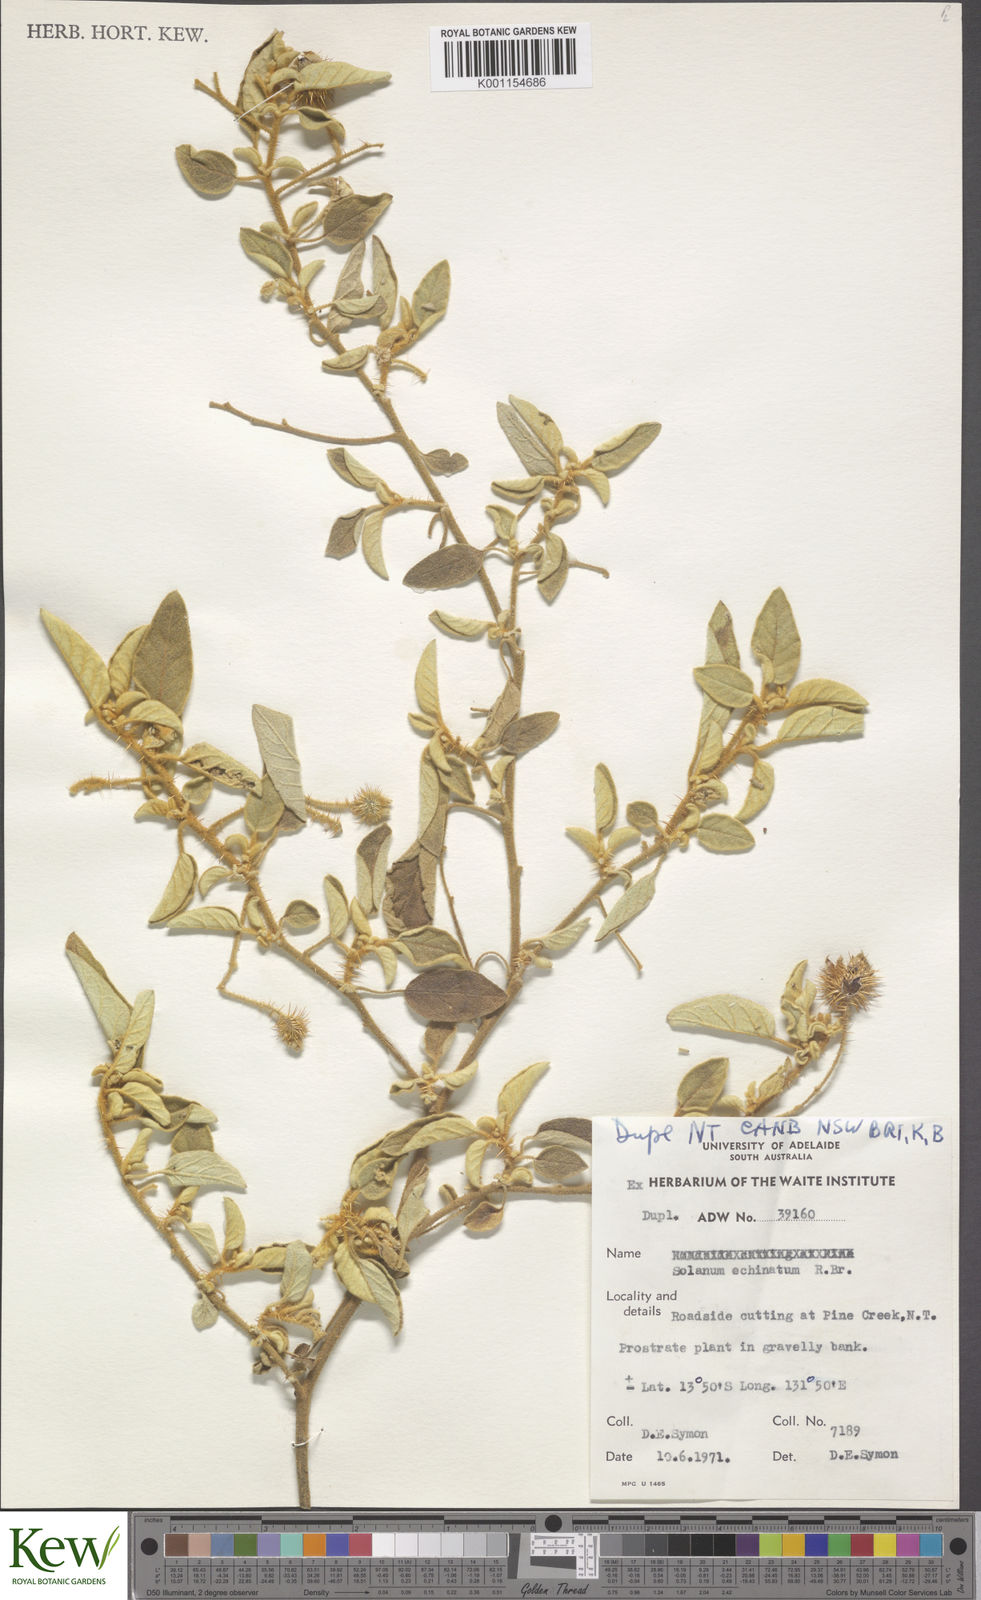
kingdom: Plantae
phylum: Tracheophyta
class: Magnoliopsida
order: Solanales
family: Solanaceae
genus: Solanum
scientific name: Solanum echinatum
